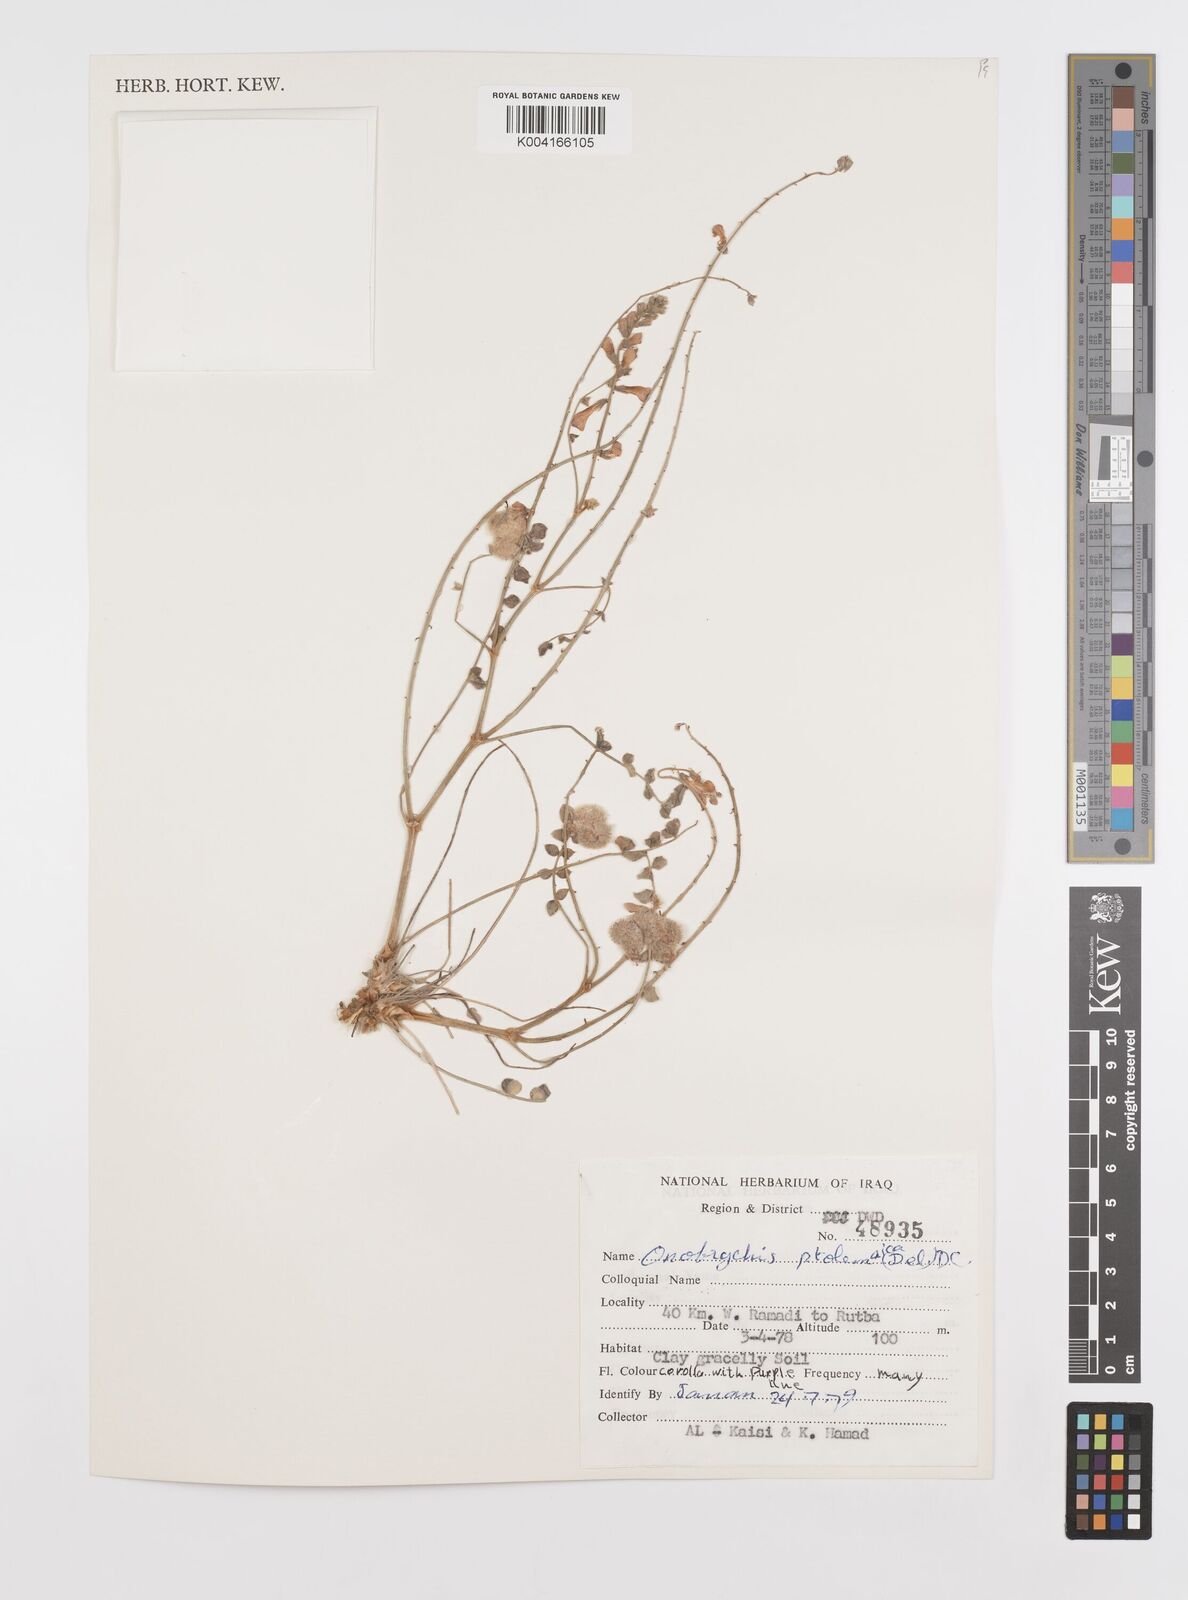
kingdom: Plantae
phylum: Tracheophyta
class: Magnoliopsida
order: Fabales
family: Fabaceae
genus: Onobrychis
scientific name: Onobrychis ptolemaica
